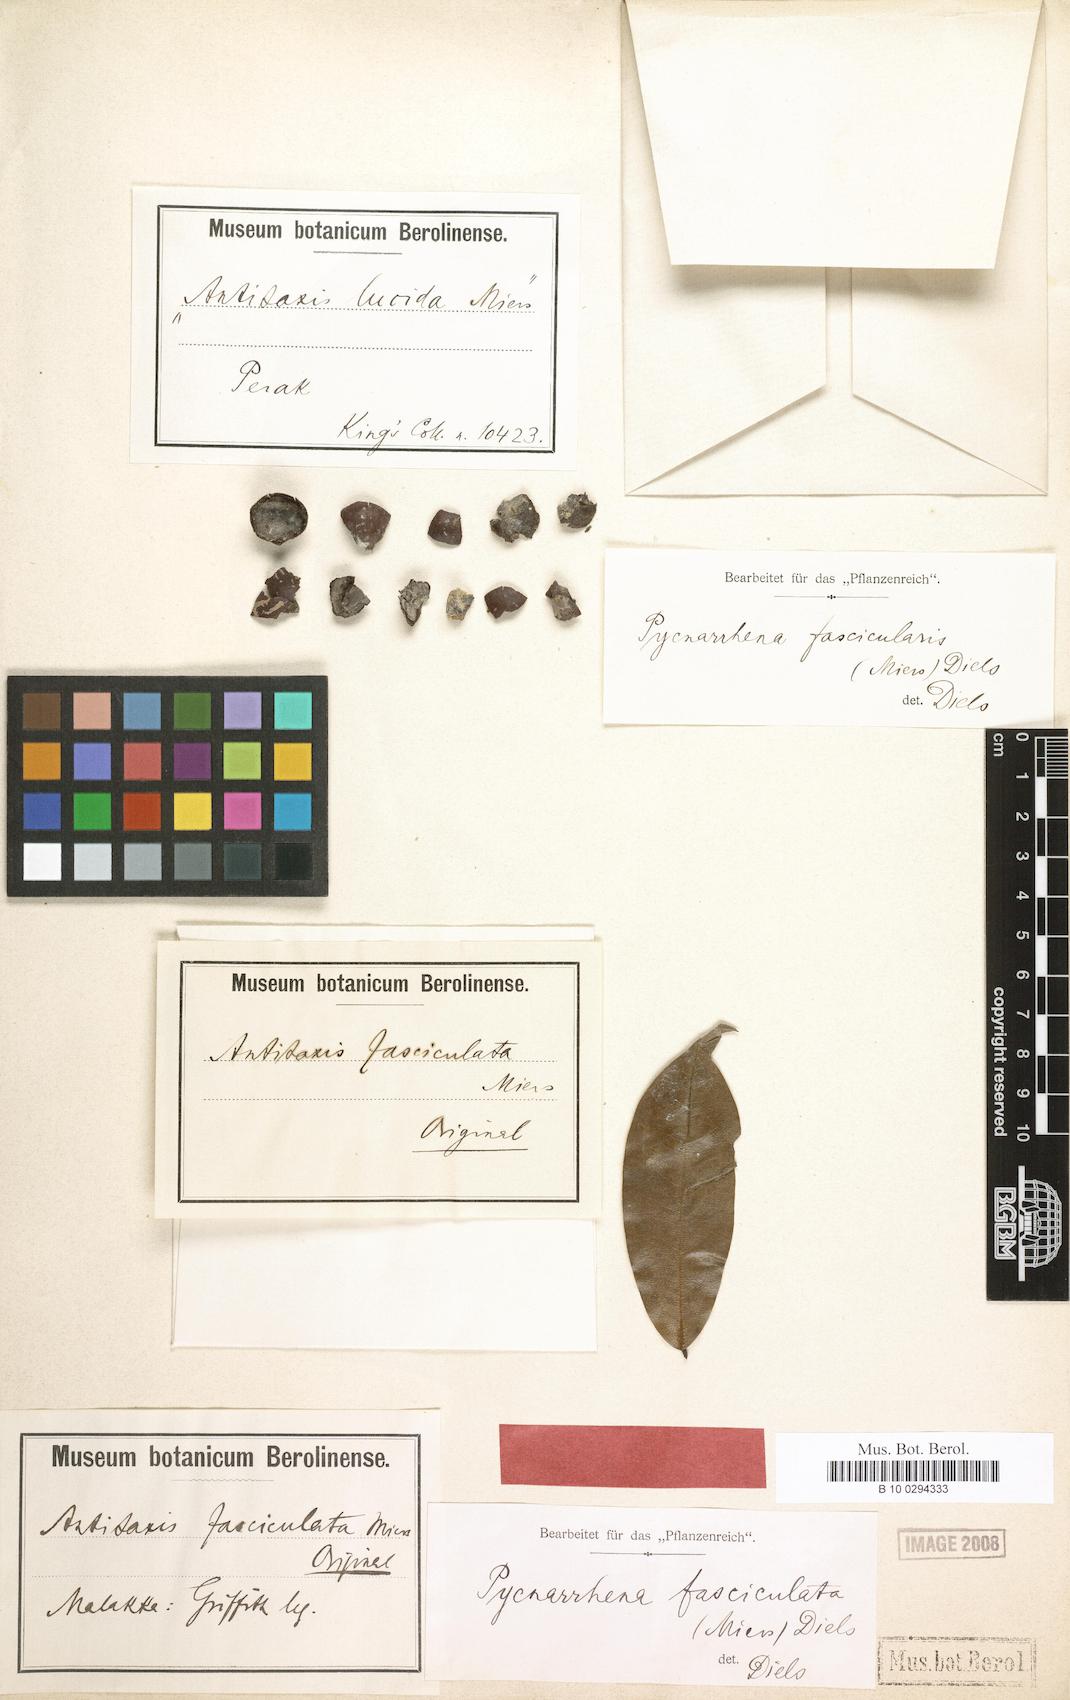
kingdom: Plantae
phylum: Tracheophyta
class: Magnoliopsida
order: Ranunculales
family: Menispermaceae
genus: Pycnarrhena
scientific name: Pycnarrhena lucida
